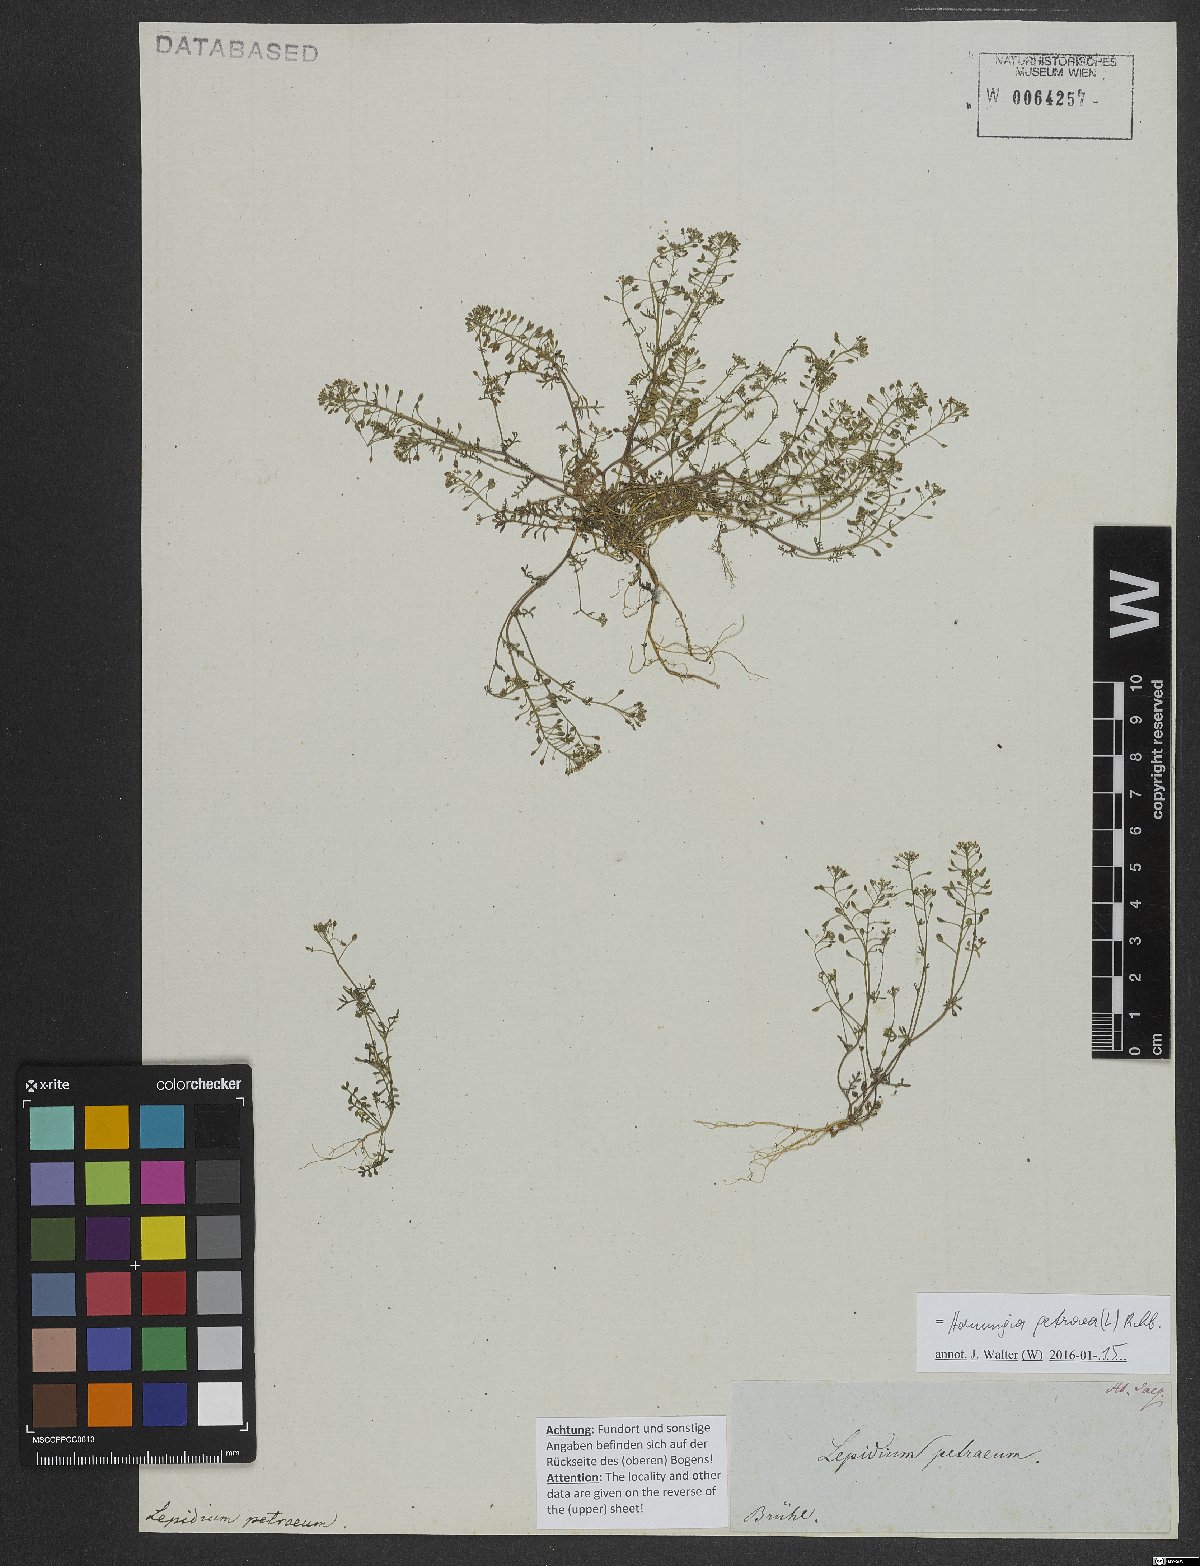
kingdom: Plantae
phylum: Tracheophyta
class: Magnoliopsida
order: Brassicales
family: Brassicaceae
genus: Hornungia
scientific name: Hornungia petraea
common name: Hutchinsia
